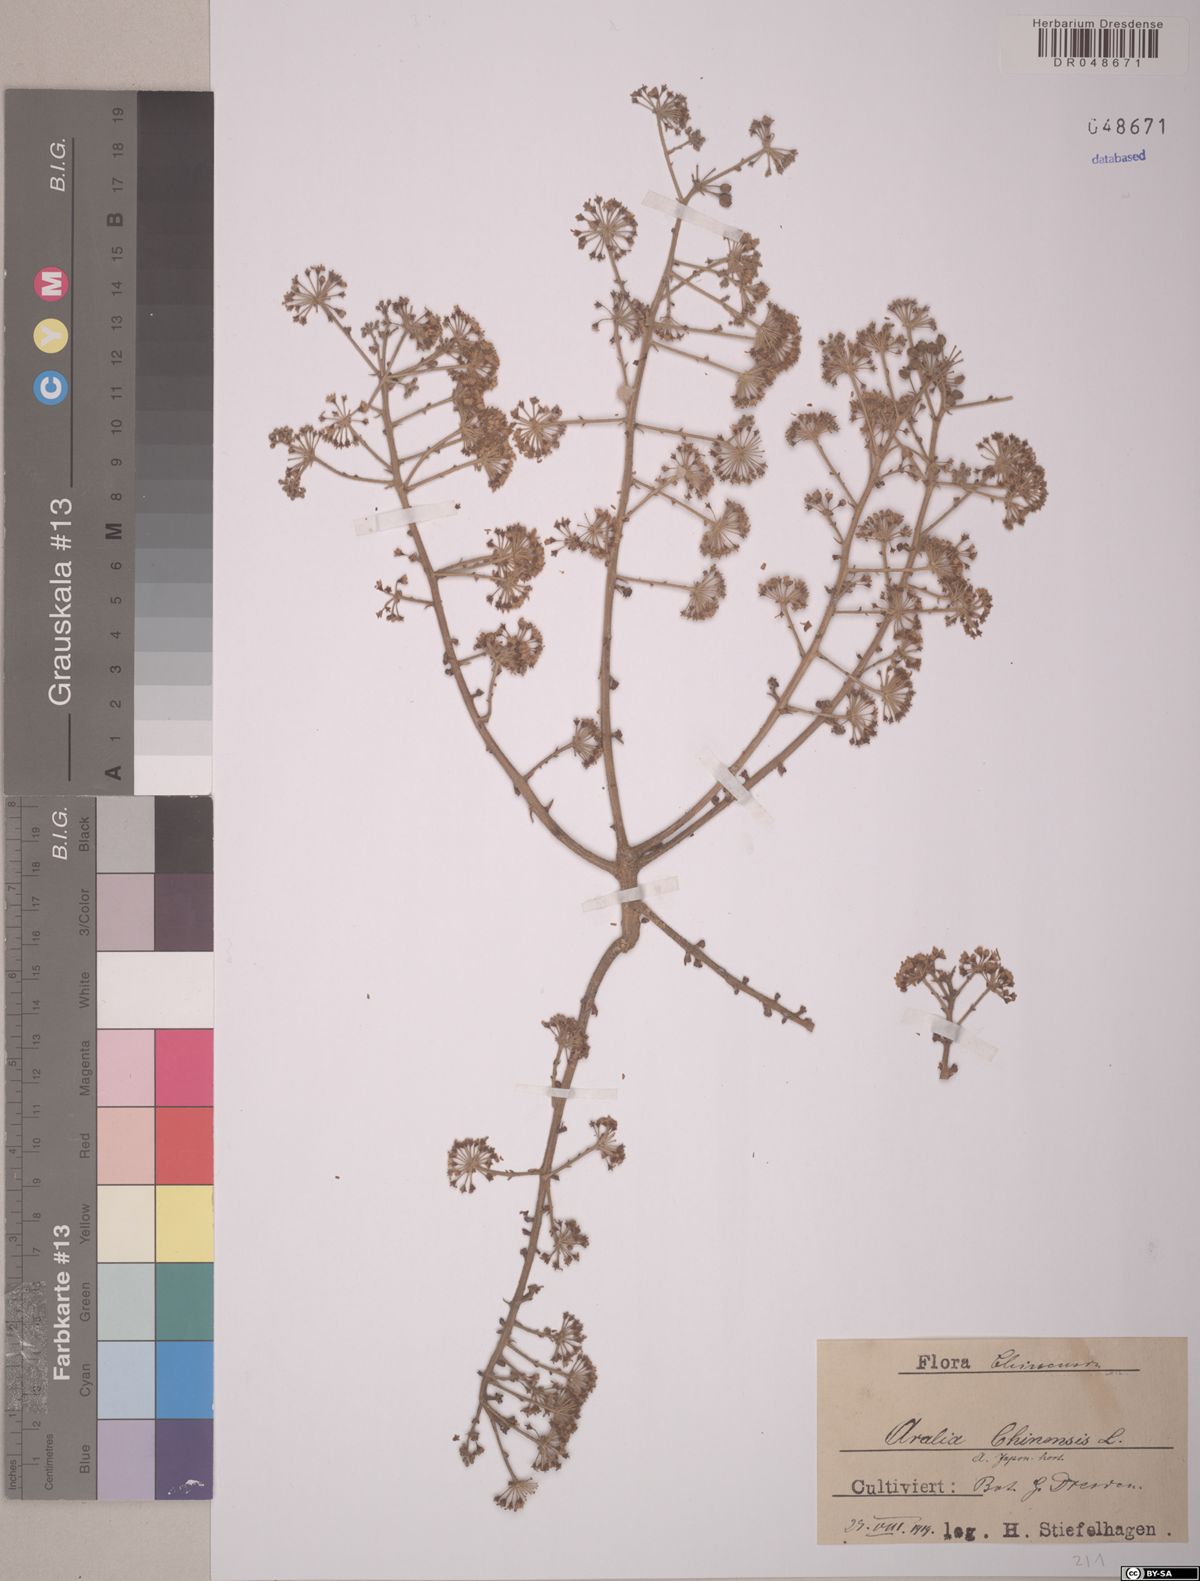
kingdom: Plantae
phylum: Tracheophyta
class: Magnoliopsida
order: Apiales
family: Araliaceae
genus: Aralia
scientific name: Aralia chinensis
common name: Chinese angelica-tree
